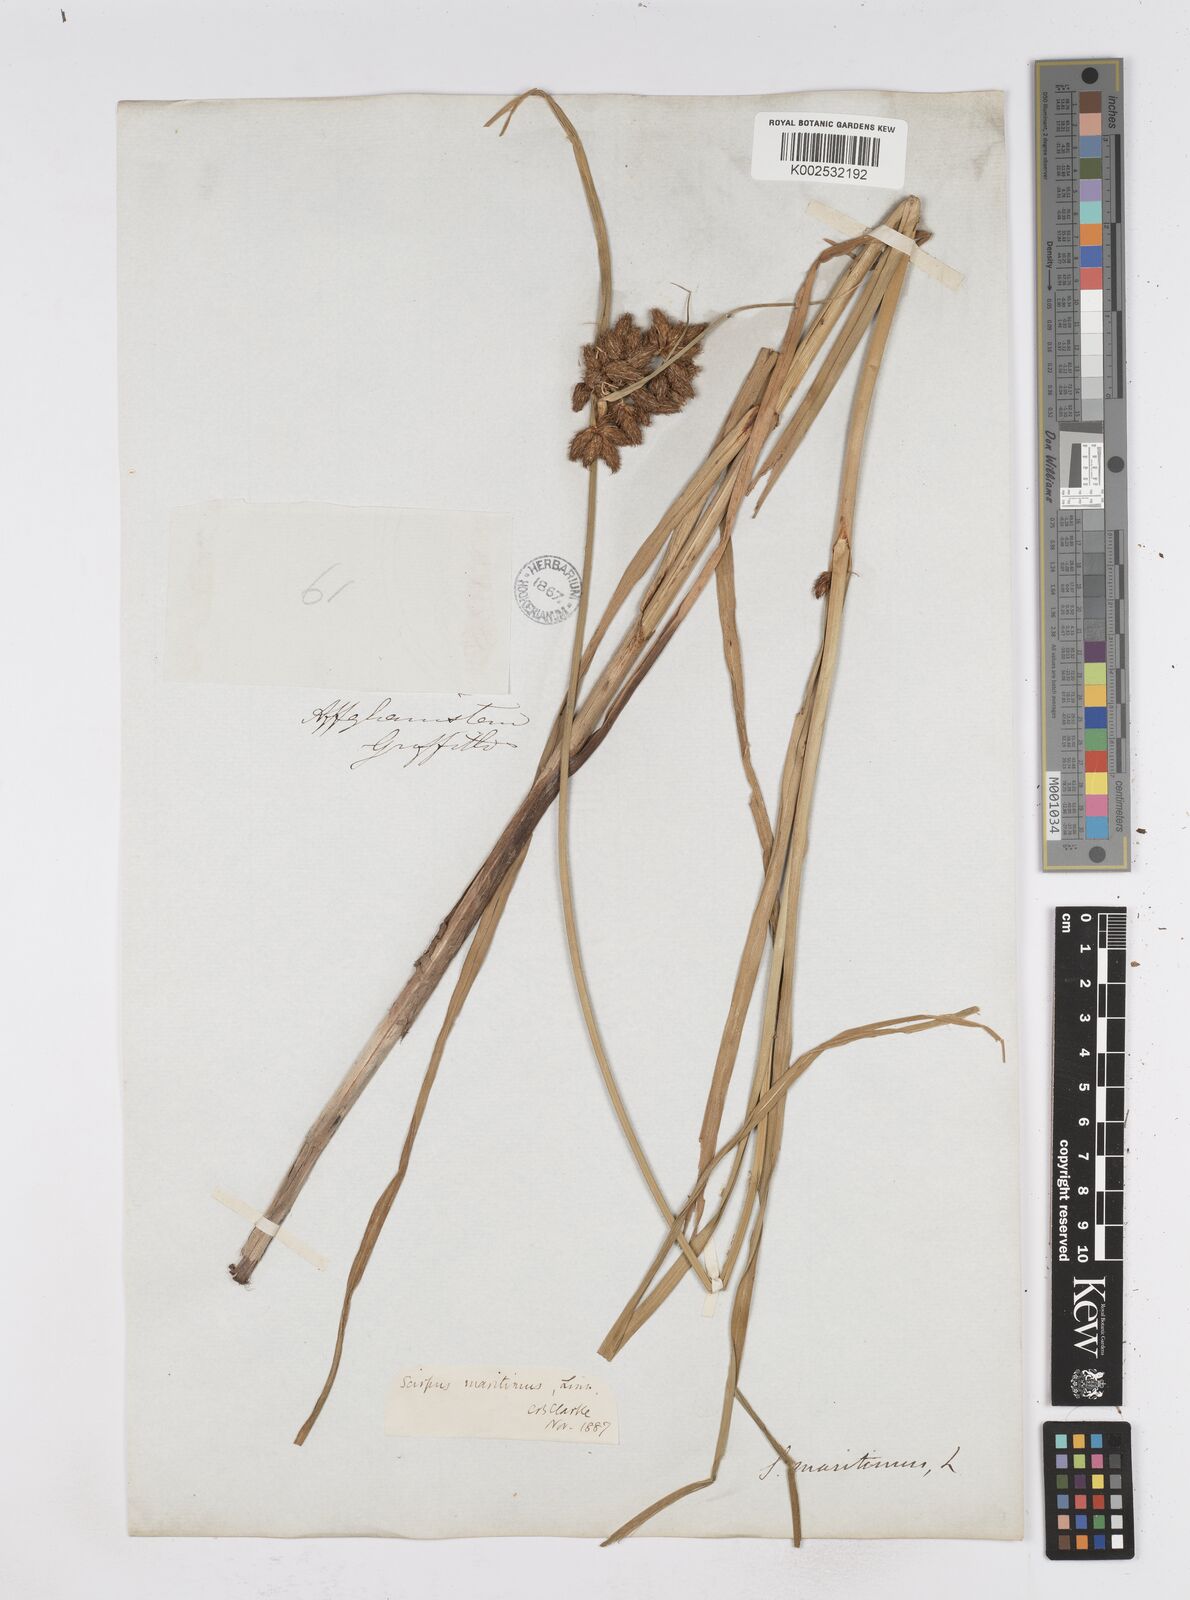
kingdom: Plantae
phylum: Tracheophyta
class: Liliopsida
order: Poales
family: Cyperaceae
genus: Bolboschoenus
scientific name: Bolboschoenus maritimus
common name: Sea club-rush
